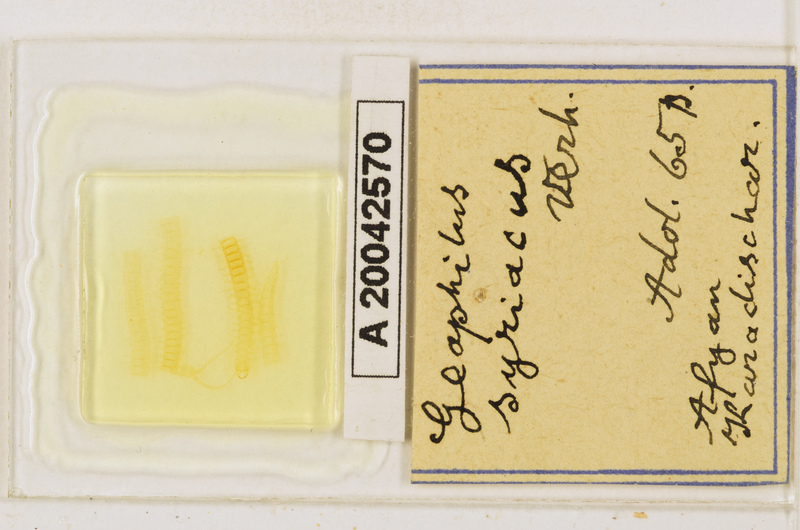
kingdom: Animalia
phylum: Arthropoda
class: Chilopoda
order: Geophilomorpha
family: Geophilidae
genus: Pachymerium
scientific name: Pachymerium syriacum
